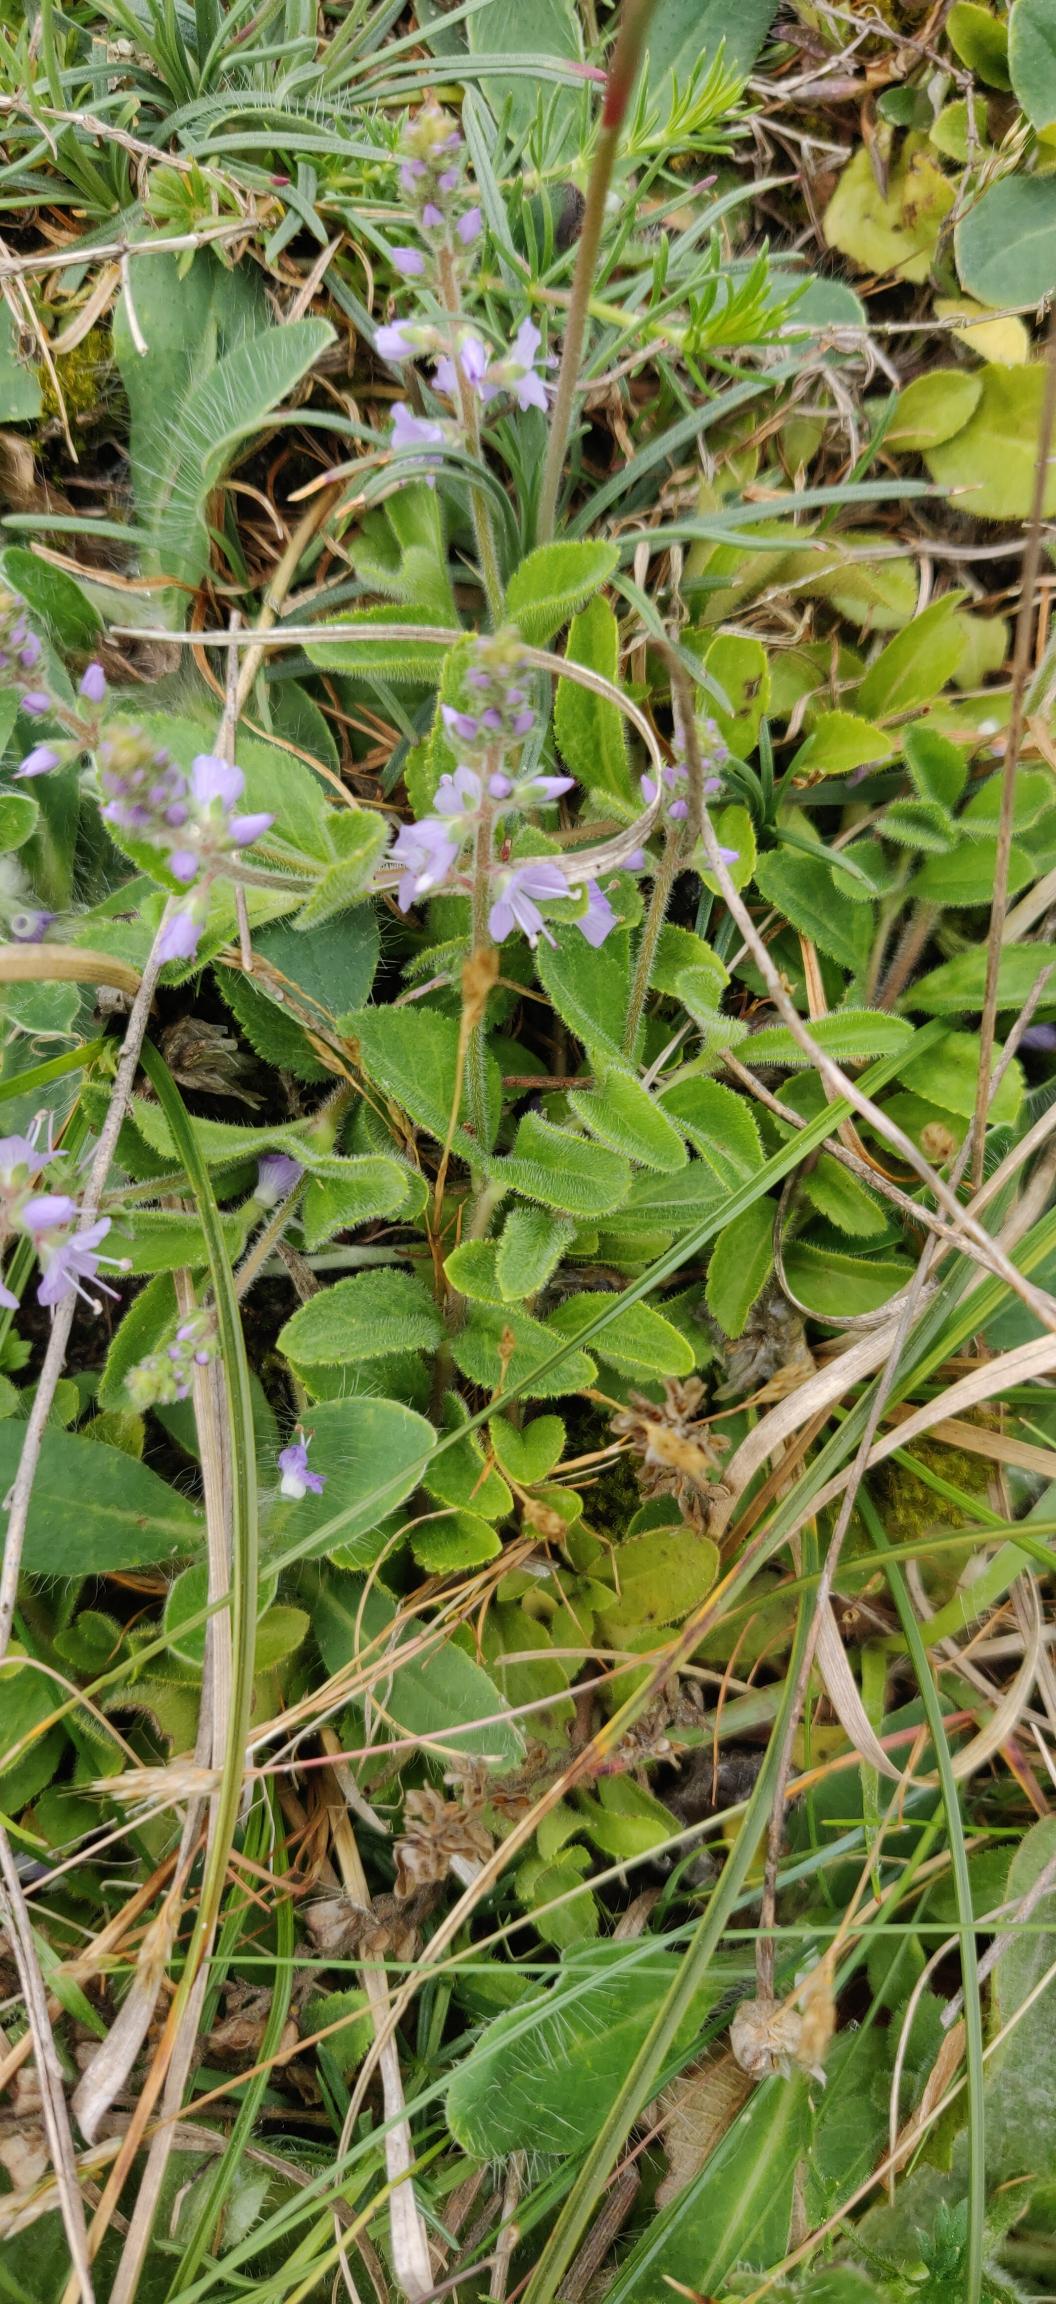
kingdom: Plantae
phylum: Tracheophyta
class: Magnoliopsida
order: Lamiales
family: Plantaginaceae
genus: Veronica
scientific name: Veronica officinalis
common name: Læge-ærenpris
